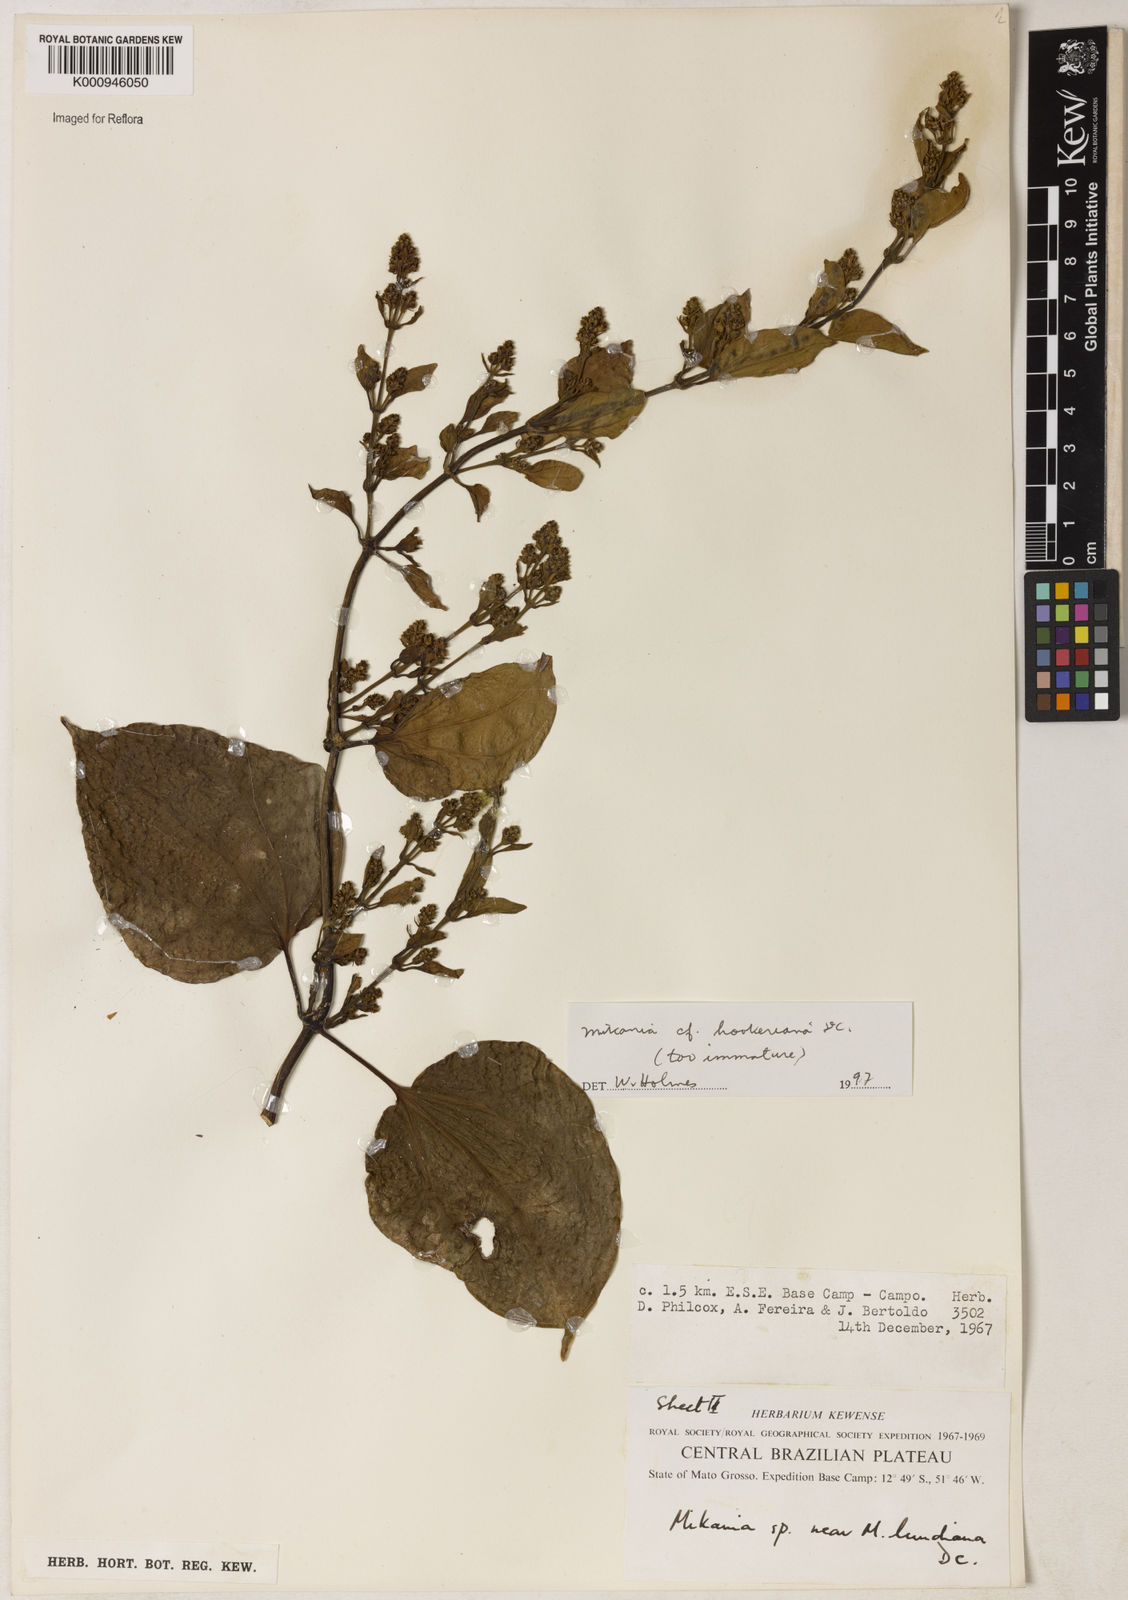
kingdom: Plantae
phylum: Tracheophyta
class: Magnoliopsida
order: Asterales
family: Asteraceae
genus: Mikania
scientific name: Mikania lundiana
